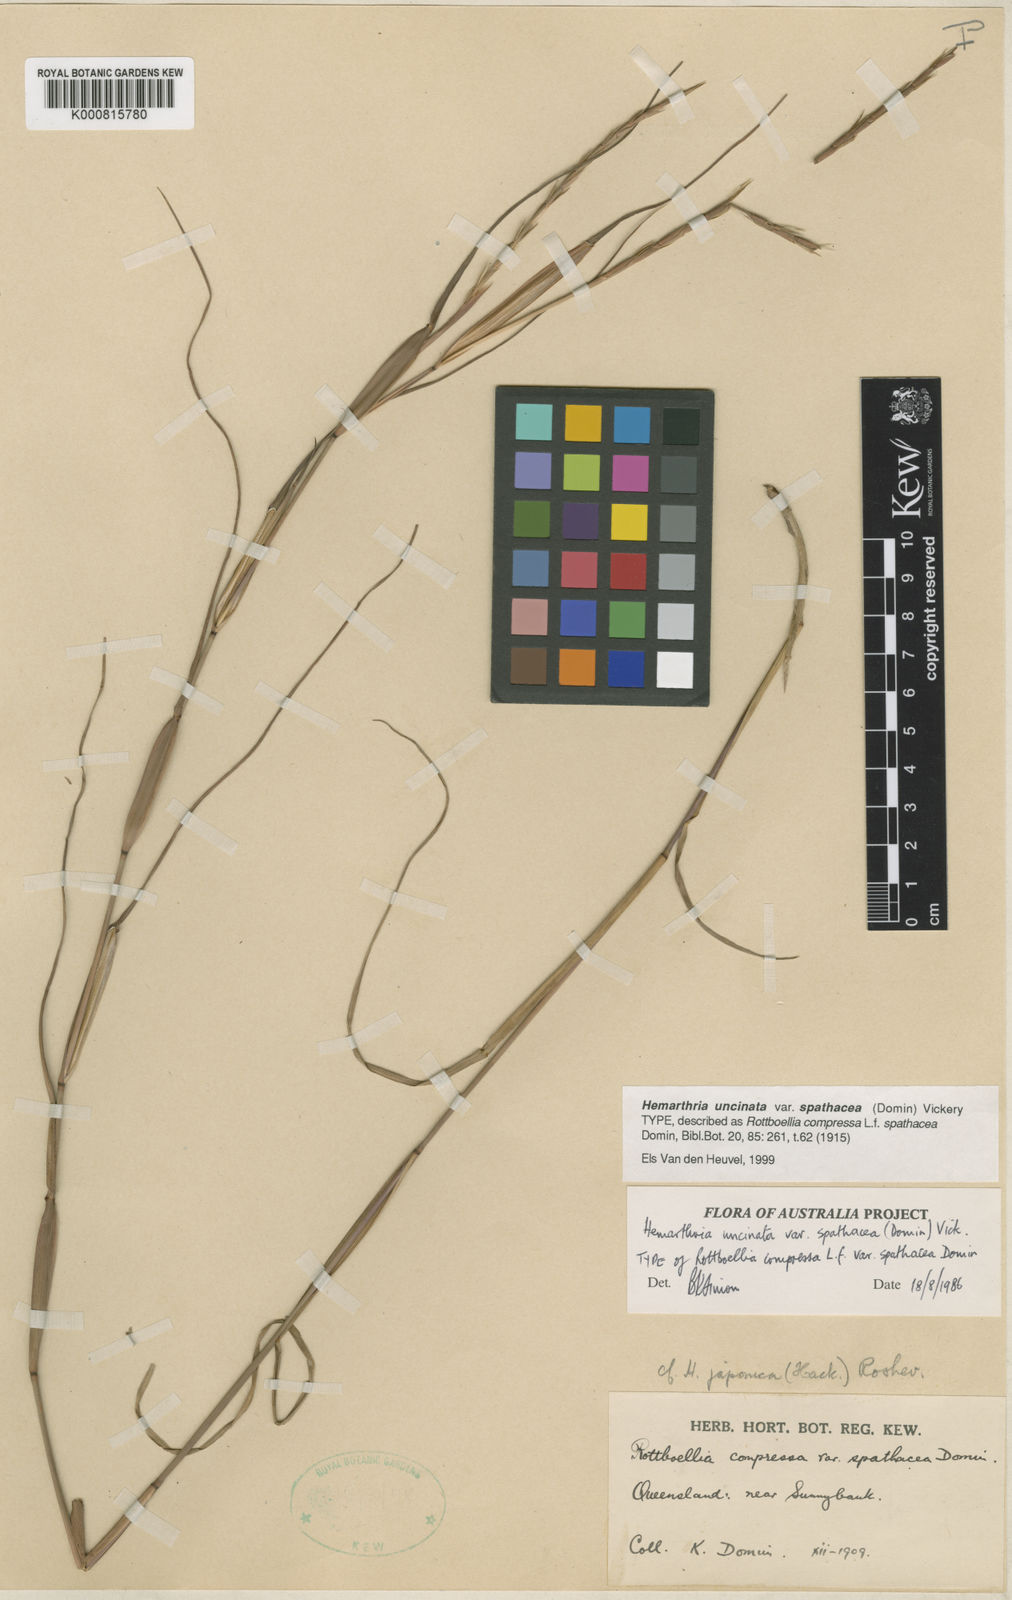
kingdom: Plantae
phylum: Tracheophyta
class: Liliopsida
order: Poales
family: Poaceae
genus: Hemarthria
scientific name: Hemarthria uncinata
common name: Matgrass
